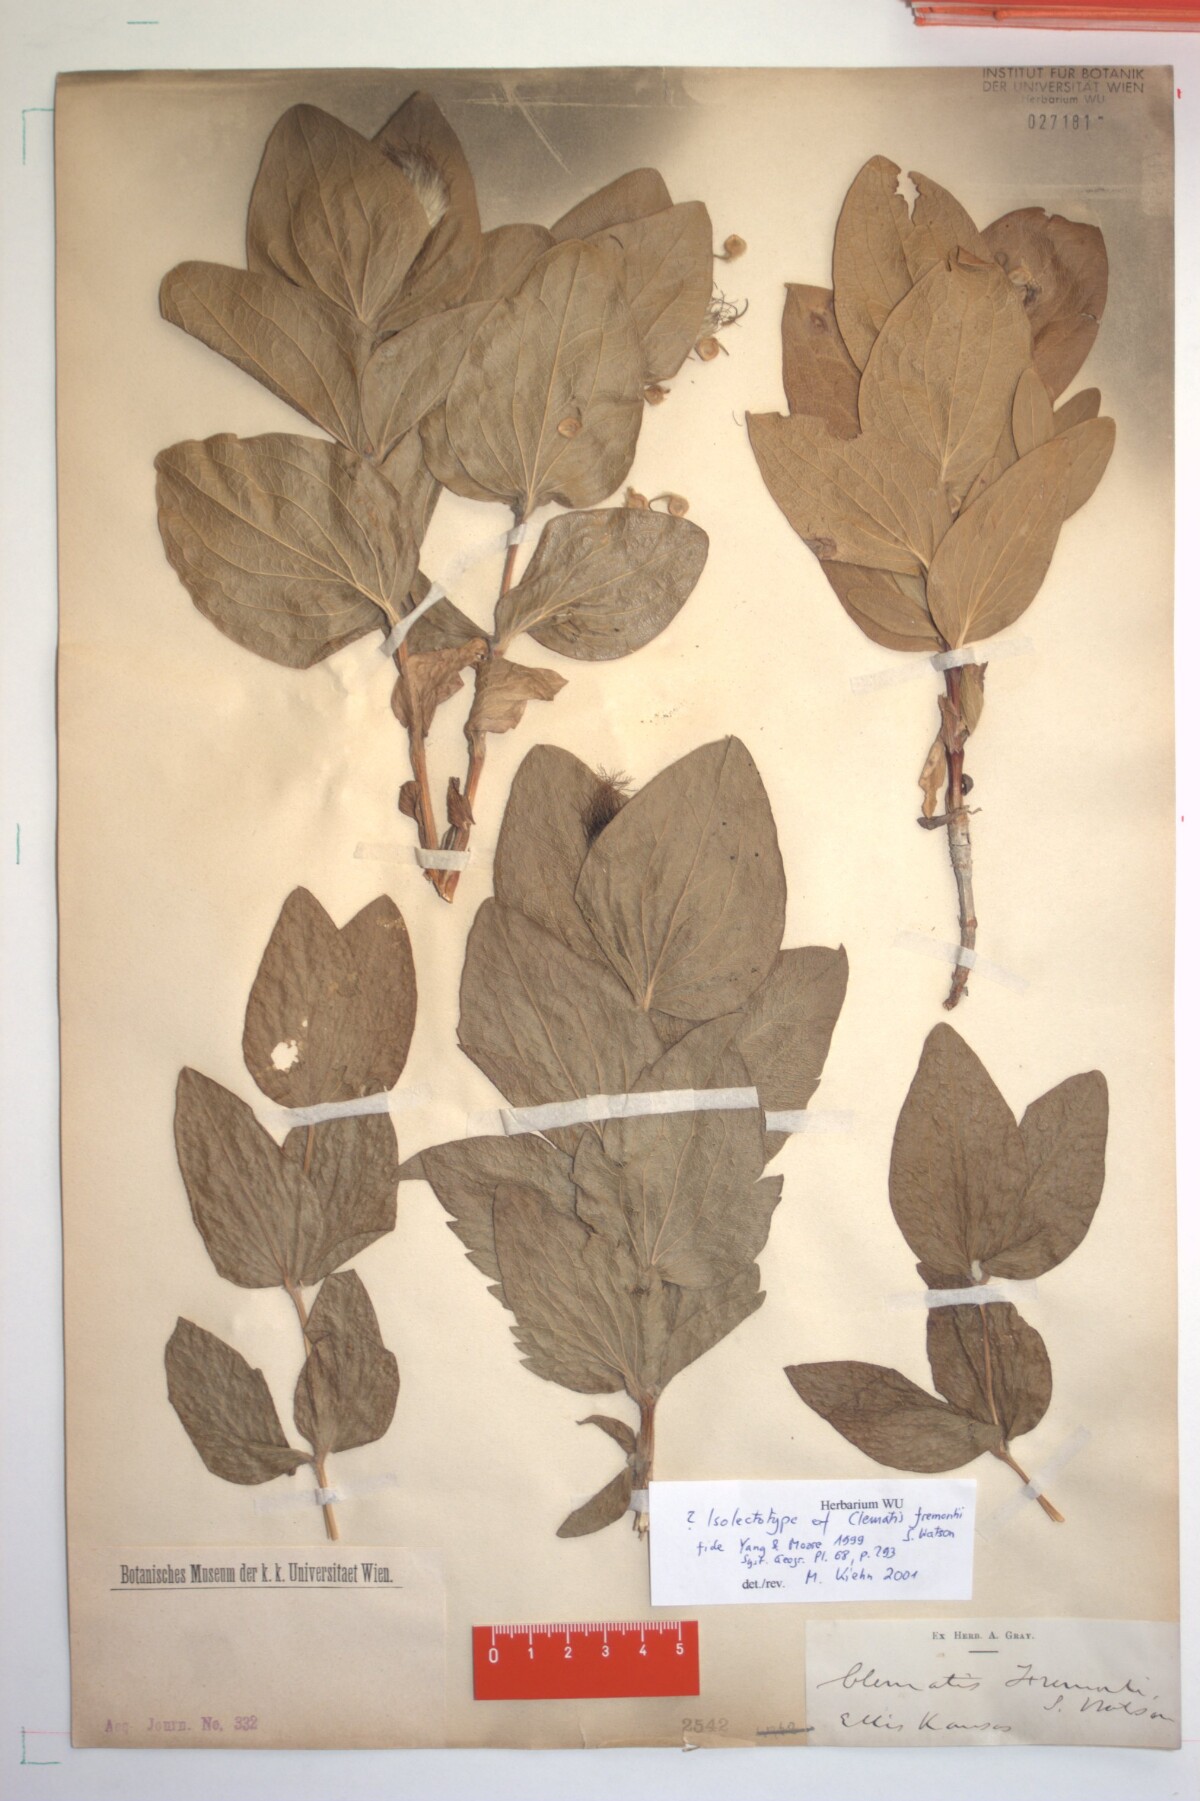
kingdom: Plantae
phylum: Tracheophyta
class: Magnoliopsida
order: Ranunculales
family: Ranunculaceae
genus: Clematis
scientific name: Clematis fremontii
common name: Fremont's clematis
